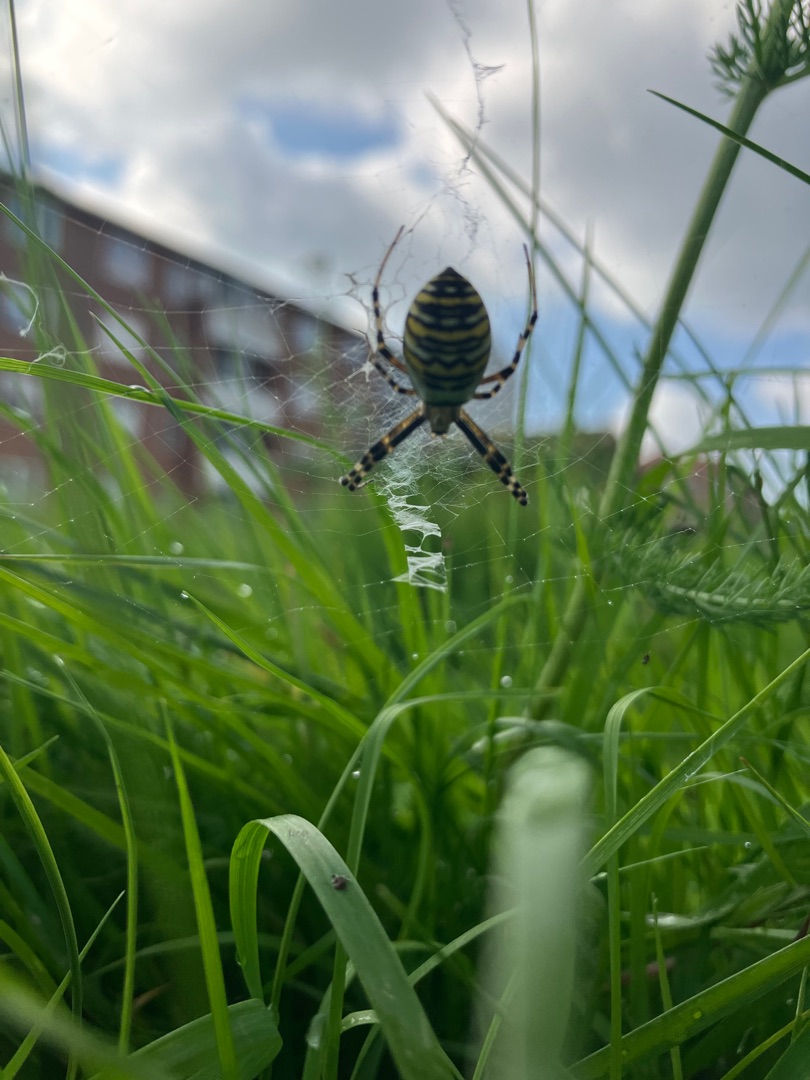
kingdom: Animalia
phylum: Arthropoda
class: Arachnida
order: Araneae
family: Araneidae
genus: Argiope
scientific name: Argiope bruennichi
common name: Hvepseedderkop
